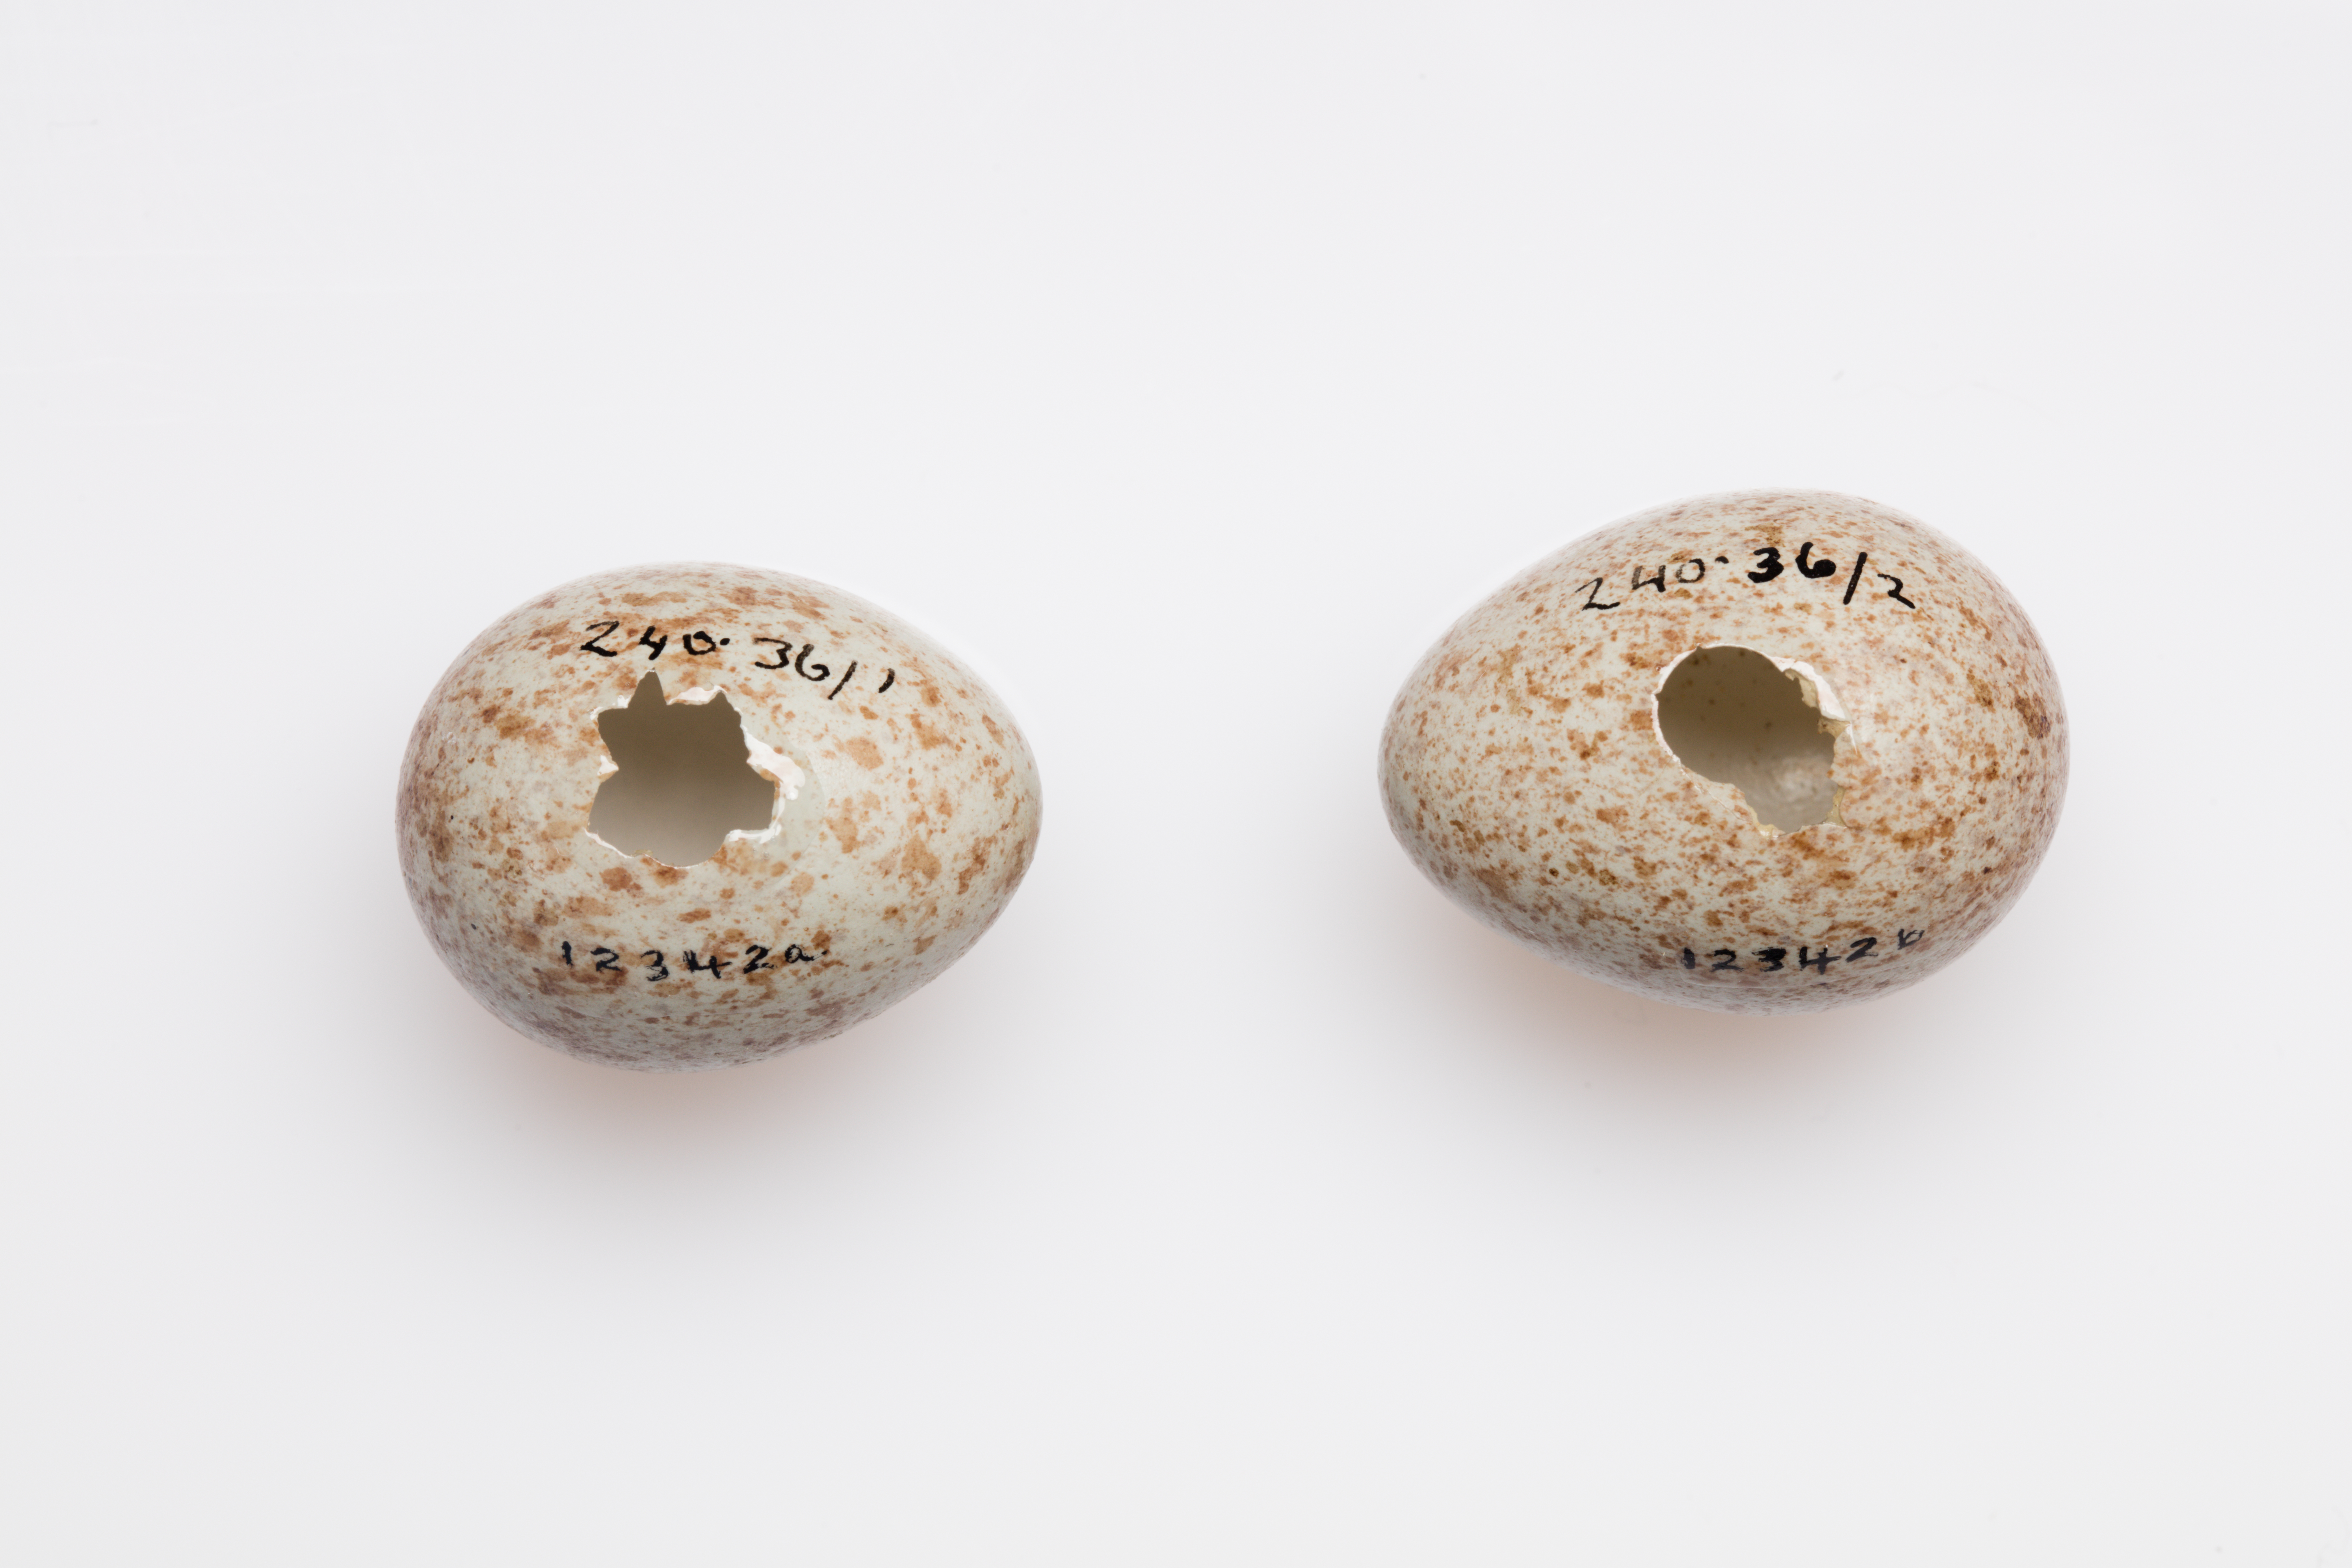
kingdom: Animalia
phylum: Chordata
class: Aves
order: Passeriformes
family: Turdidae
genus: Turdus
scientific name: Turdus merula
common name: Common blackbird
